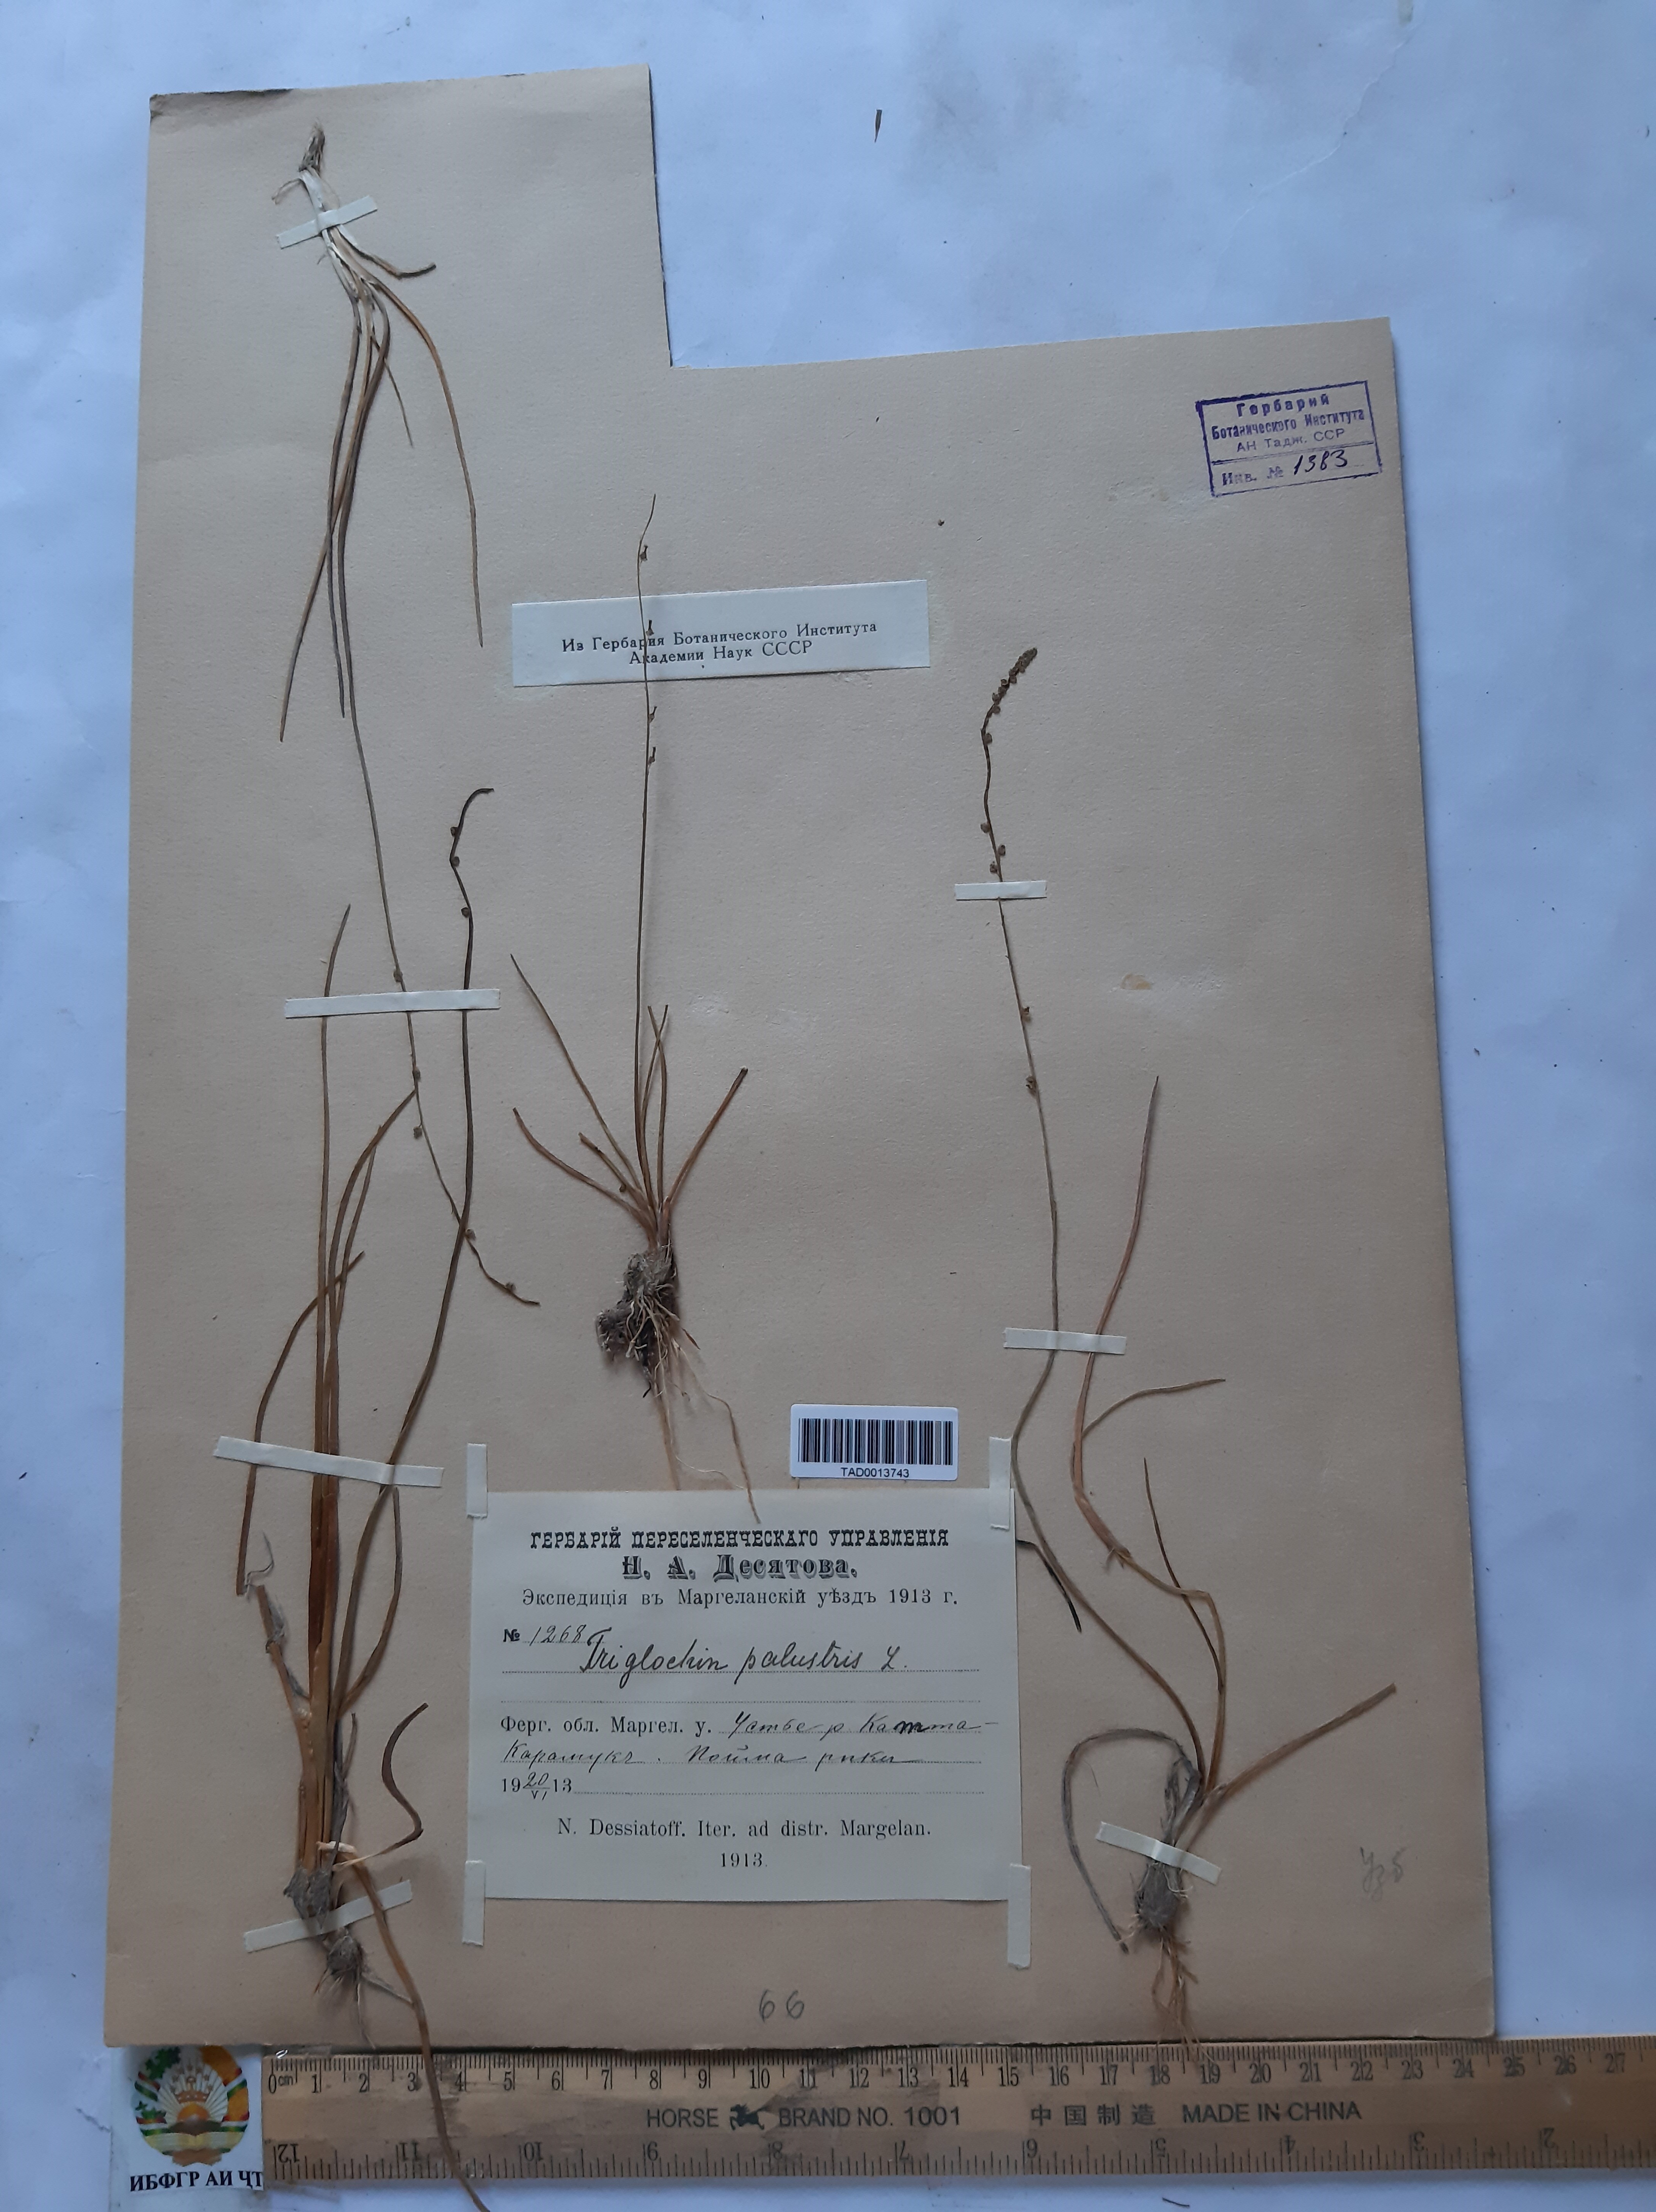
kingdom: Plantae
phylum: Tracheophyta
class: Liliopsida
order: Alismatales
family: Juncaginaceae
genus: Triglochin
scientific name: Triglochin palustris
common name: Marsh arrowgrass
